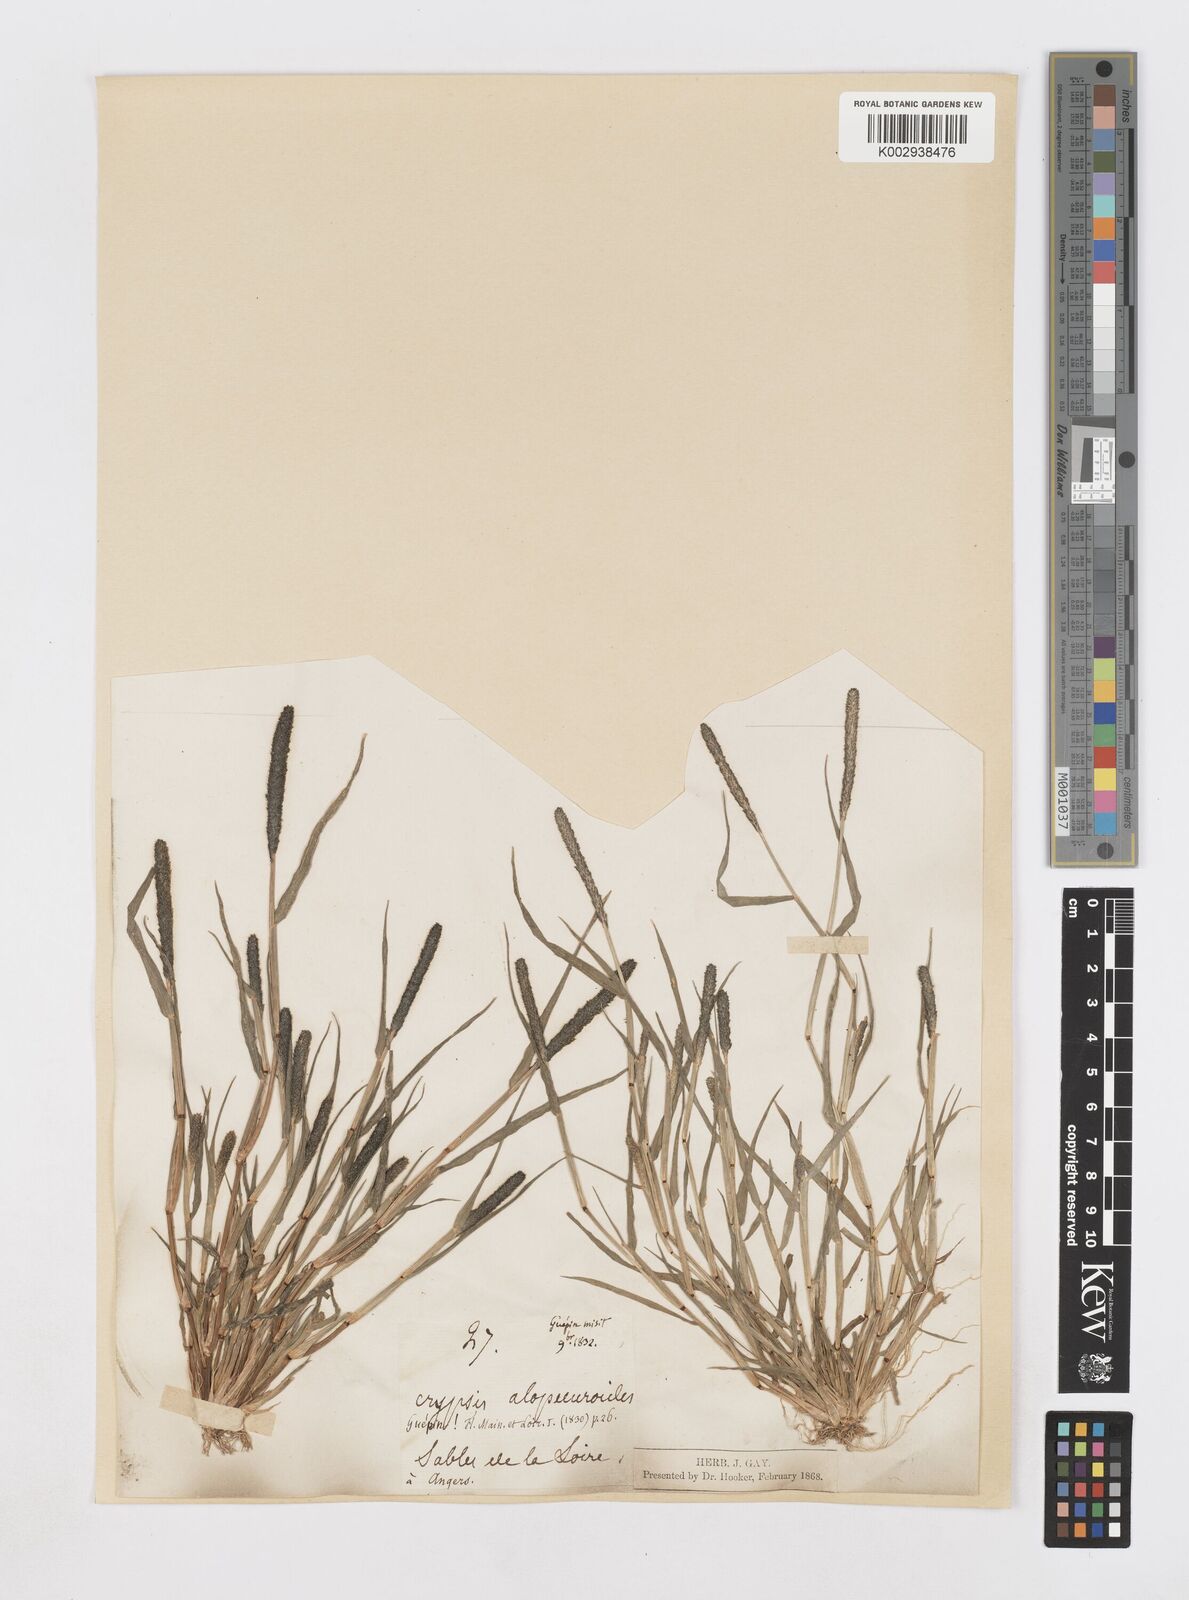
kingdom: Plantae
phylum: Tracheophyta
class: Liliopsida
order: Poales
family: Poaceae
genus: Sporobolus
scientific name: Sporobolus alopecuroides
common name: Foxtail pricklegrass
